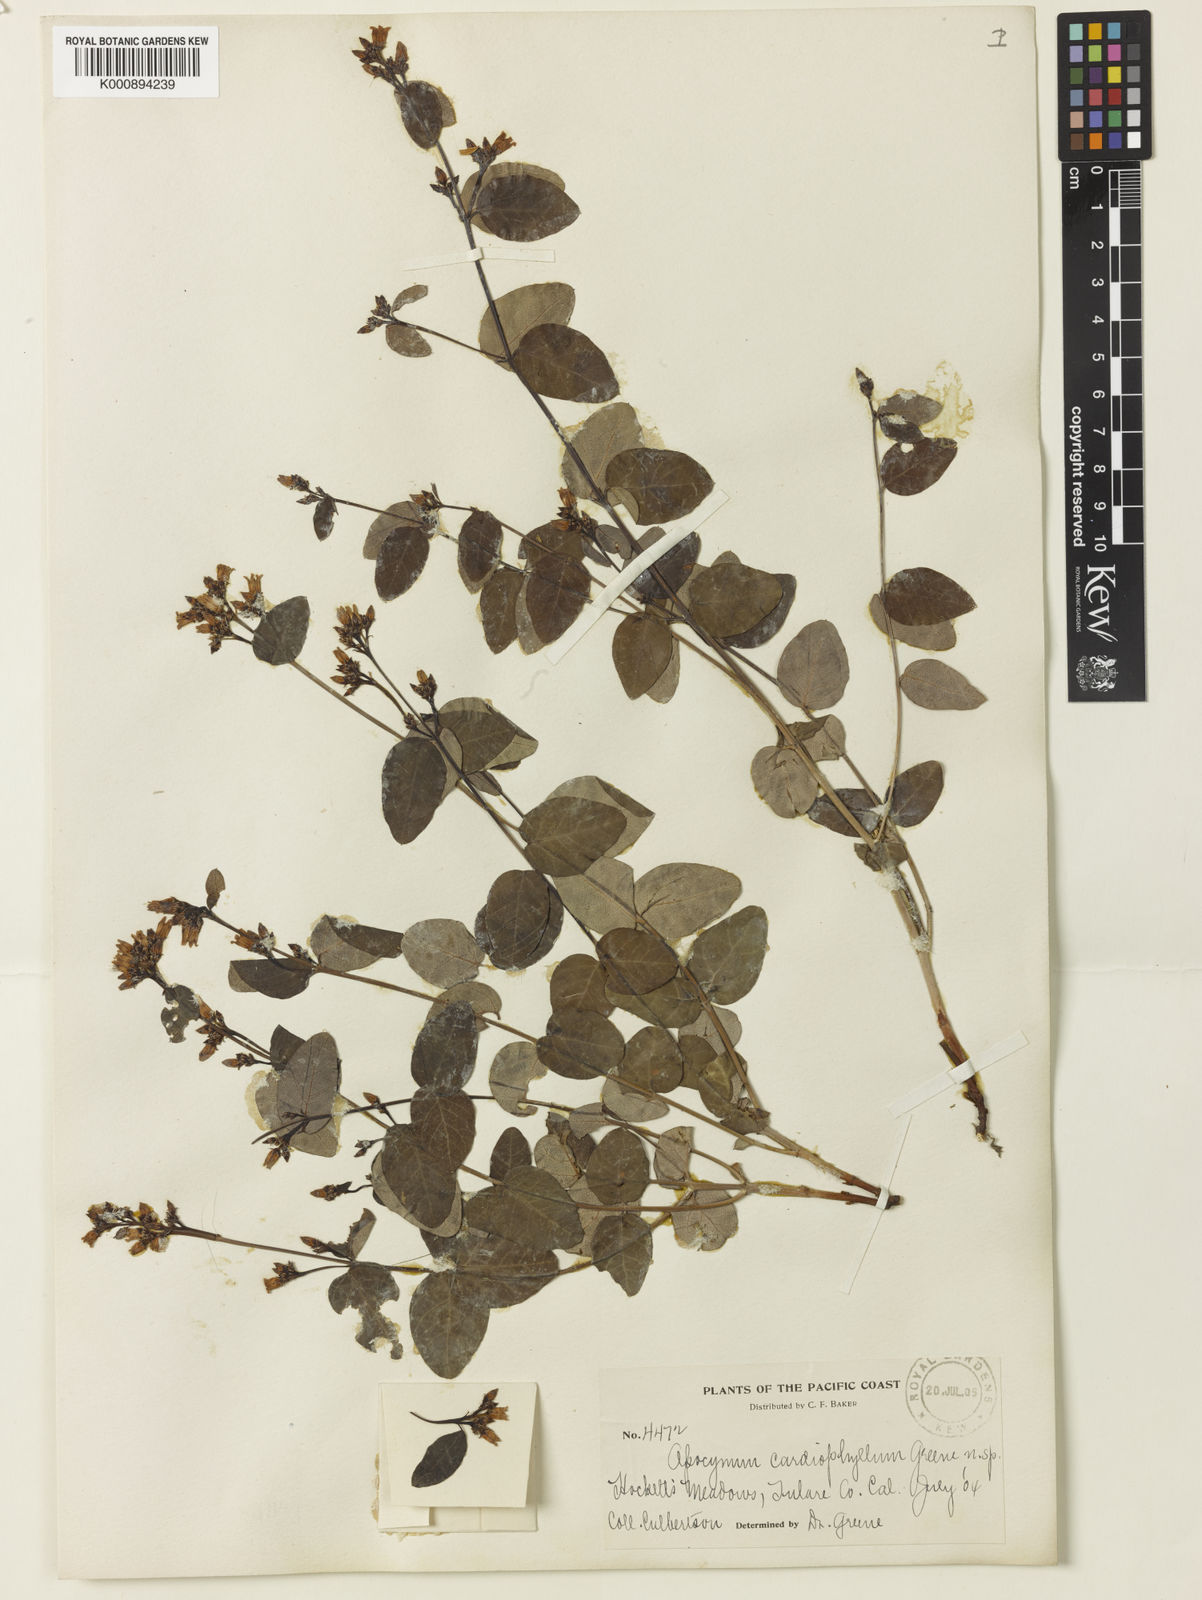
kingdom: Plantae
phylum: Tracheophyta
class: Magnoliopsida
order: Gentianales
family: Apocynaceae
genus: Apocynum
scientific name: Apocynum androsaemifolium
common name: Spreading dogbane
